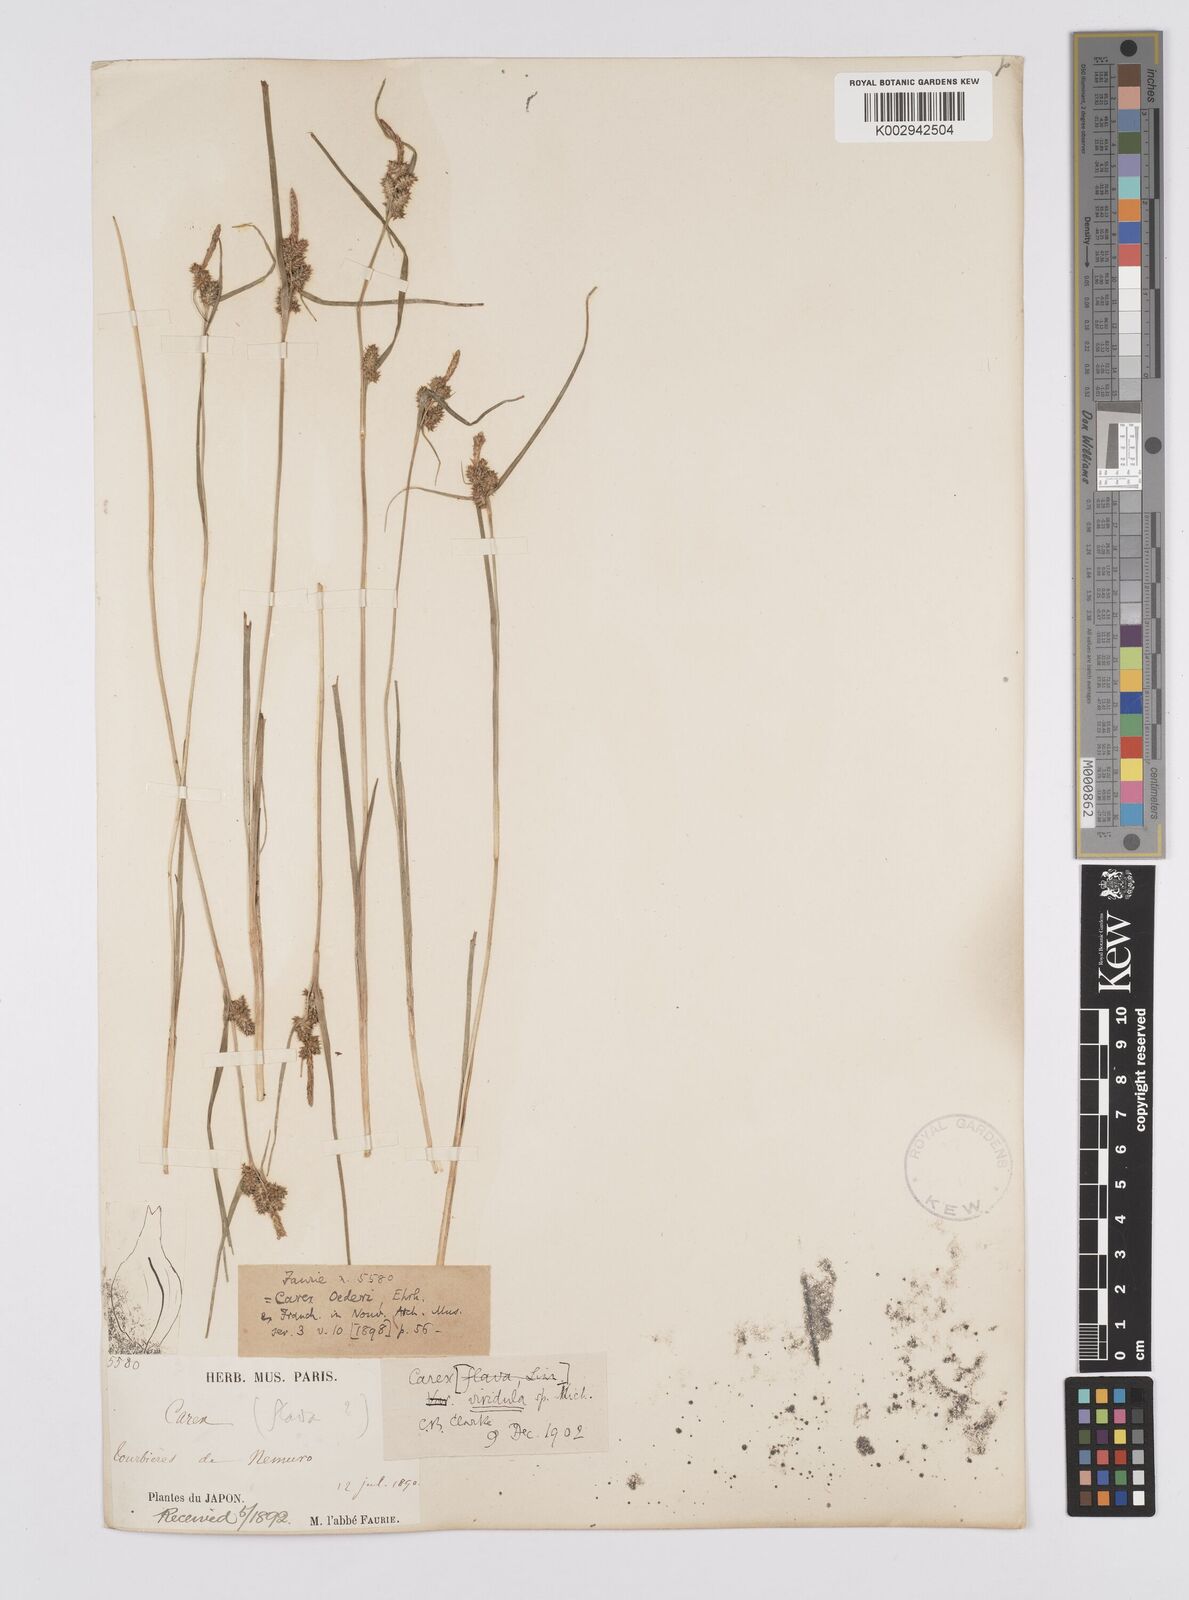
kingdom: Plantae
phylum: Tracheophyta
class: Liliopsida
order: Poales
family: Cyperaceae
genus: Carex
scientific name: Carex oederi
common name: Common & small-fruited yellow-sedge
